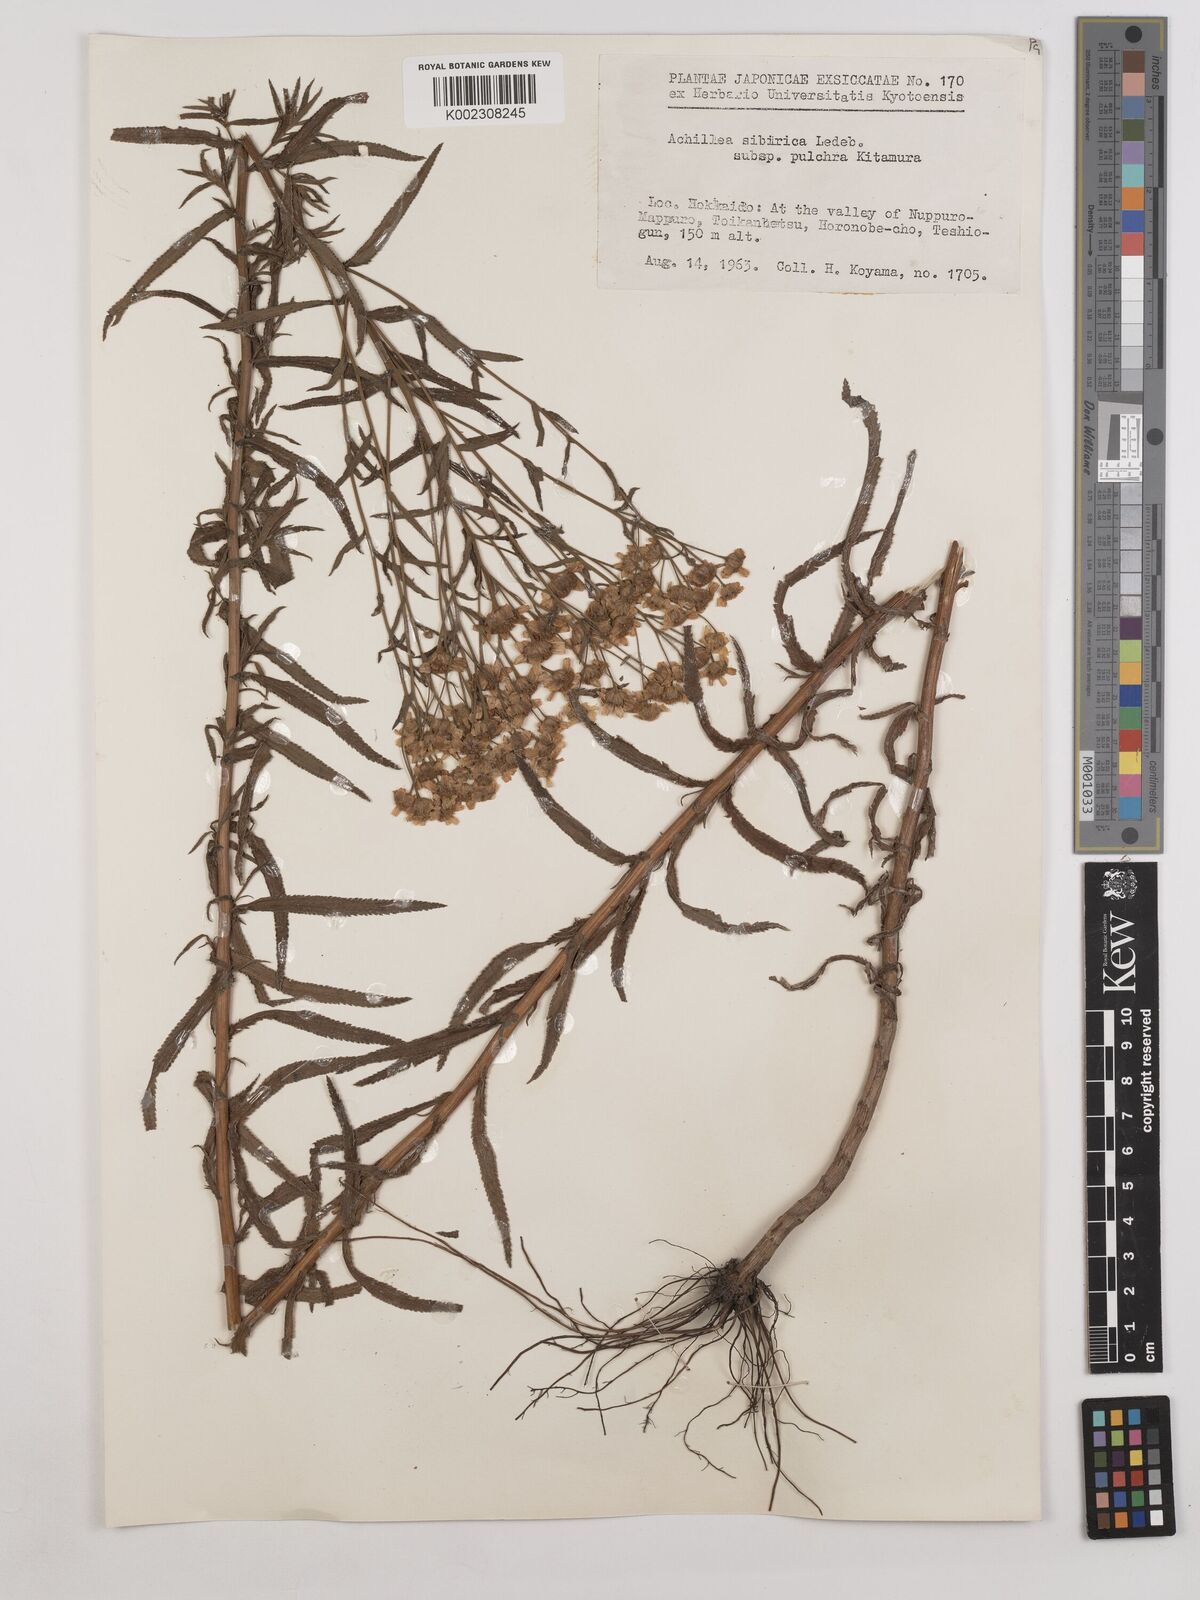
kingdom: Plantae
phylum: Tracheophyta
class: Magnoliopsida
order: Asterales
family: Asteraceae
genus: Achillea
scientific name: Achillea alpina
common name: Siberian yarrow
